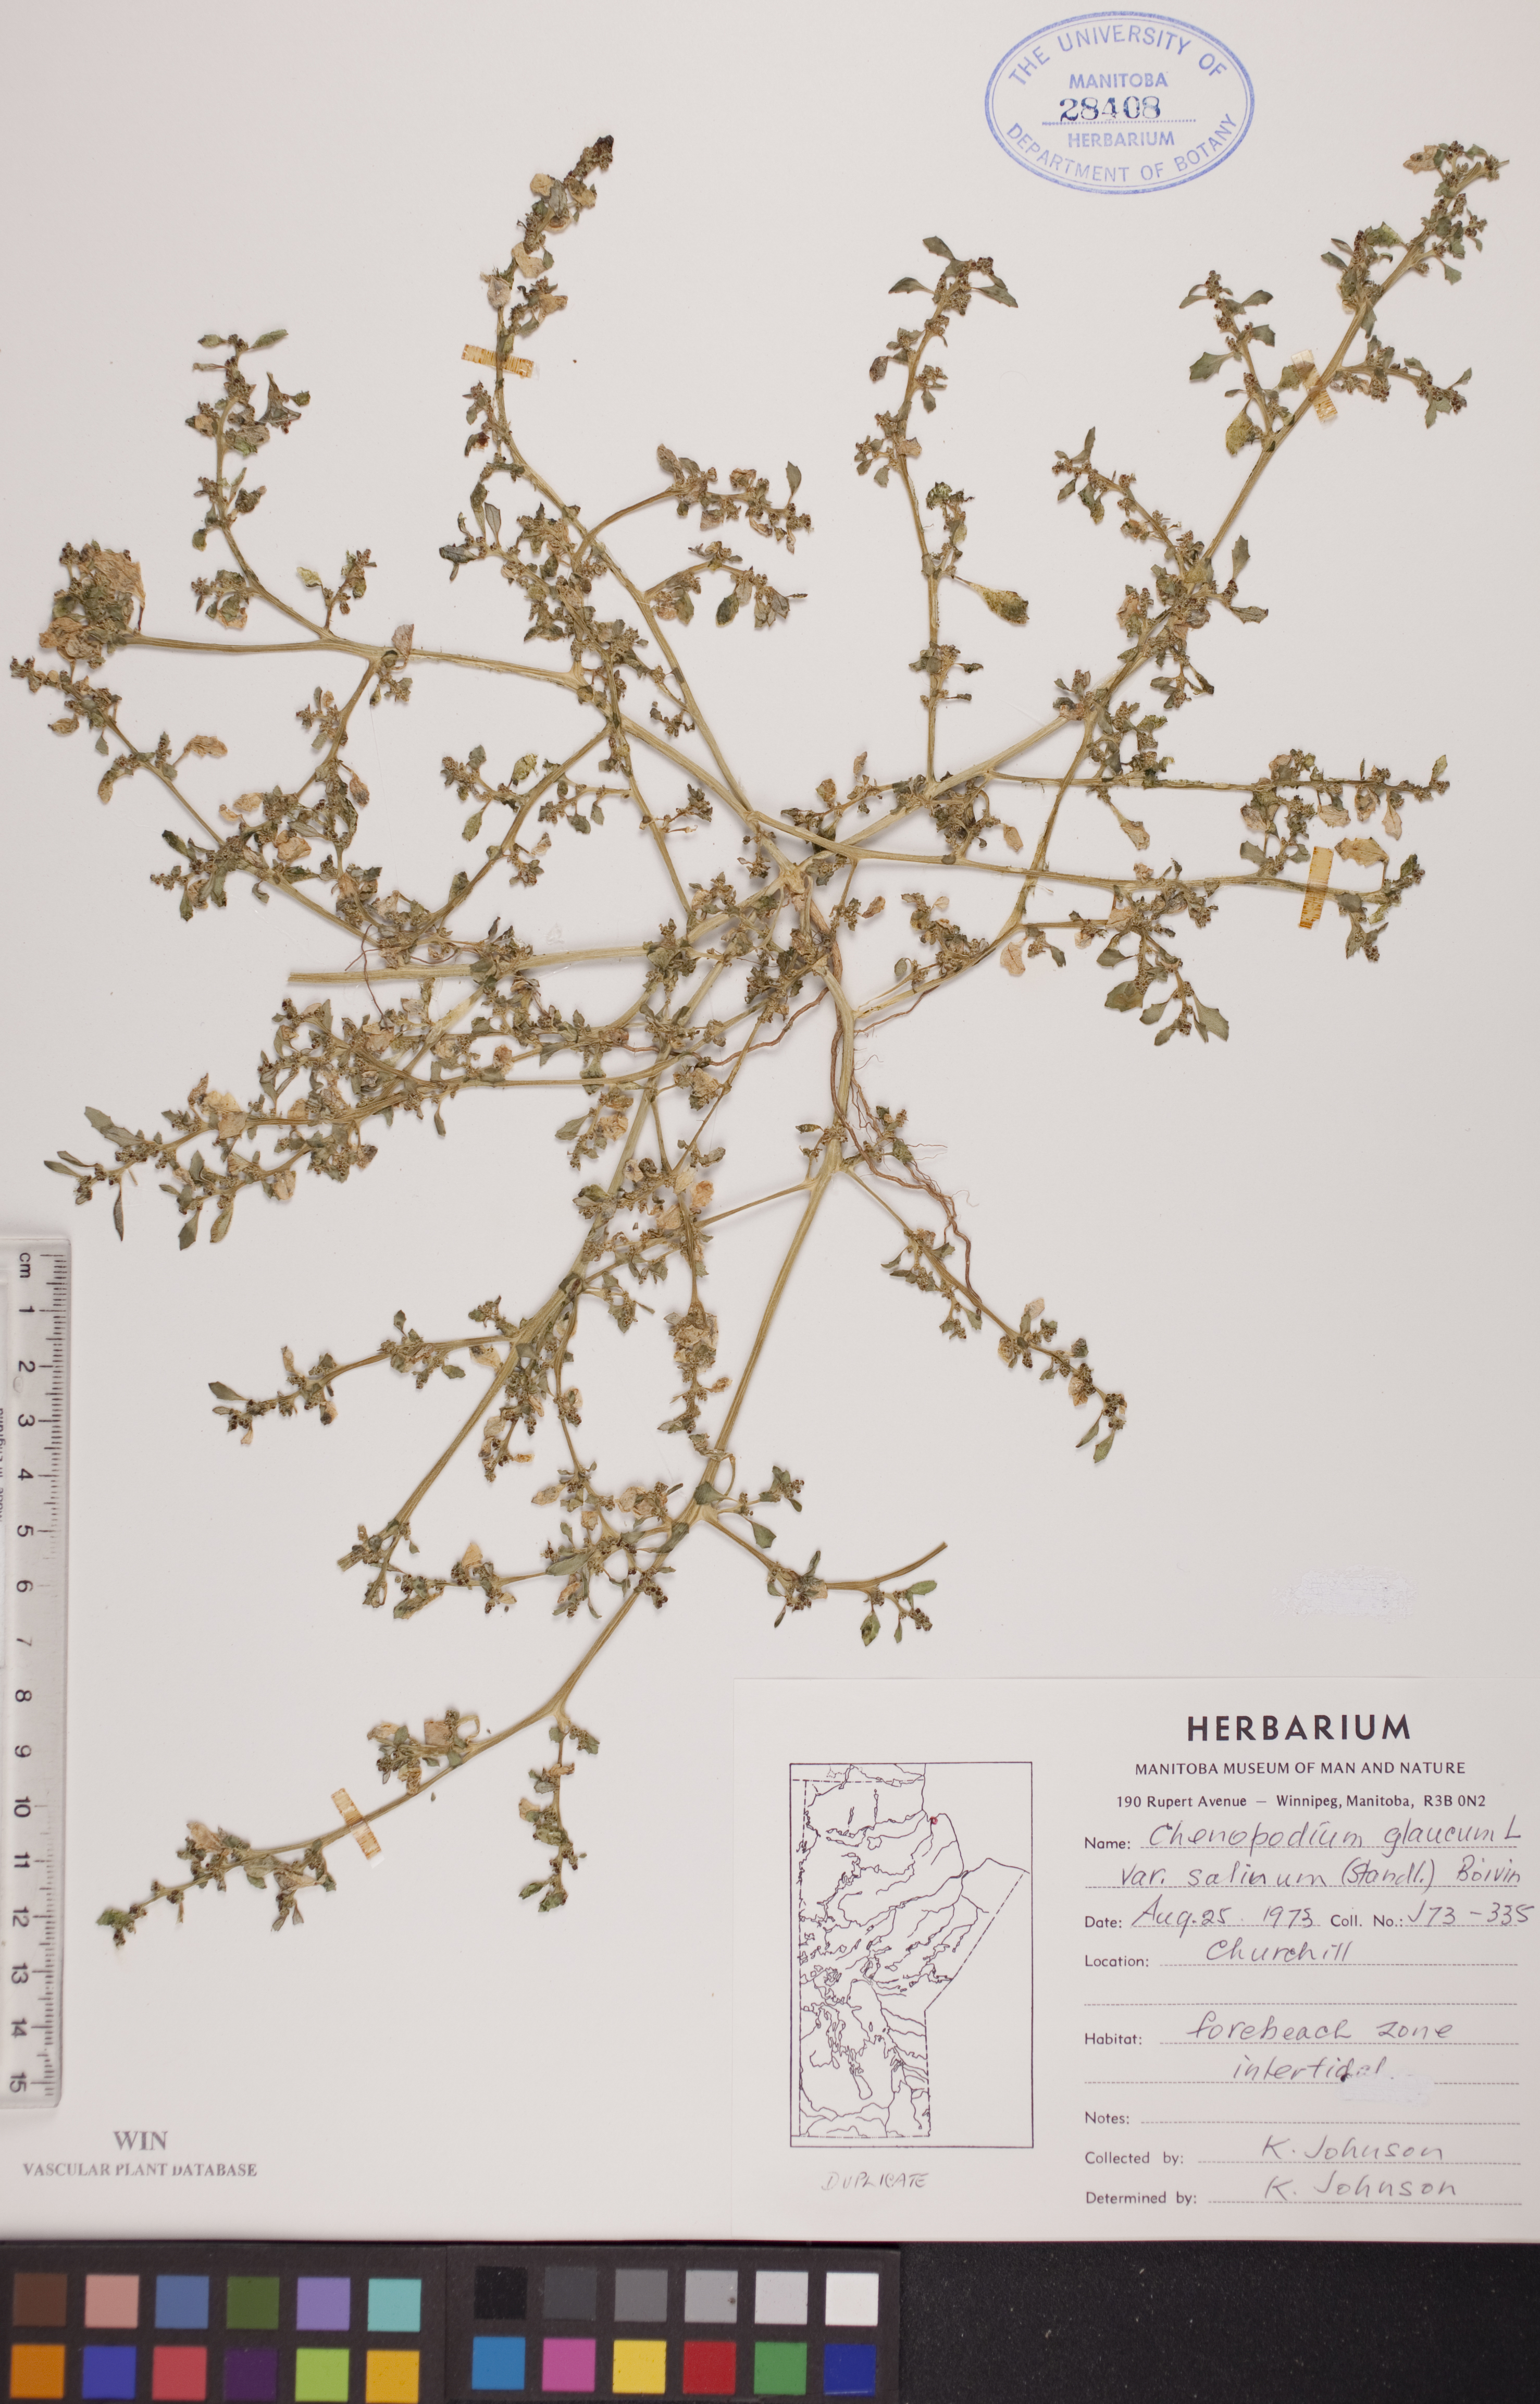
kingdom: Plantae
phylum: Tracheophyta
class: Magnoliopsida
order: Caryophyllales
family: Amaranthaceae
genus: Oxybasis
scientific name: Oxybasis salina
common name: Rocky mountain goosefoot
